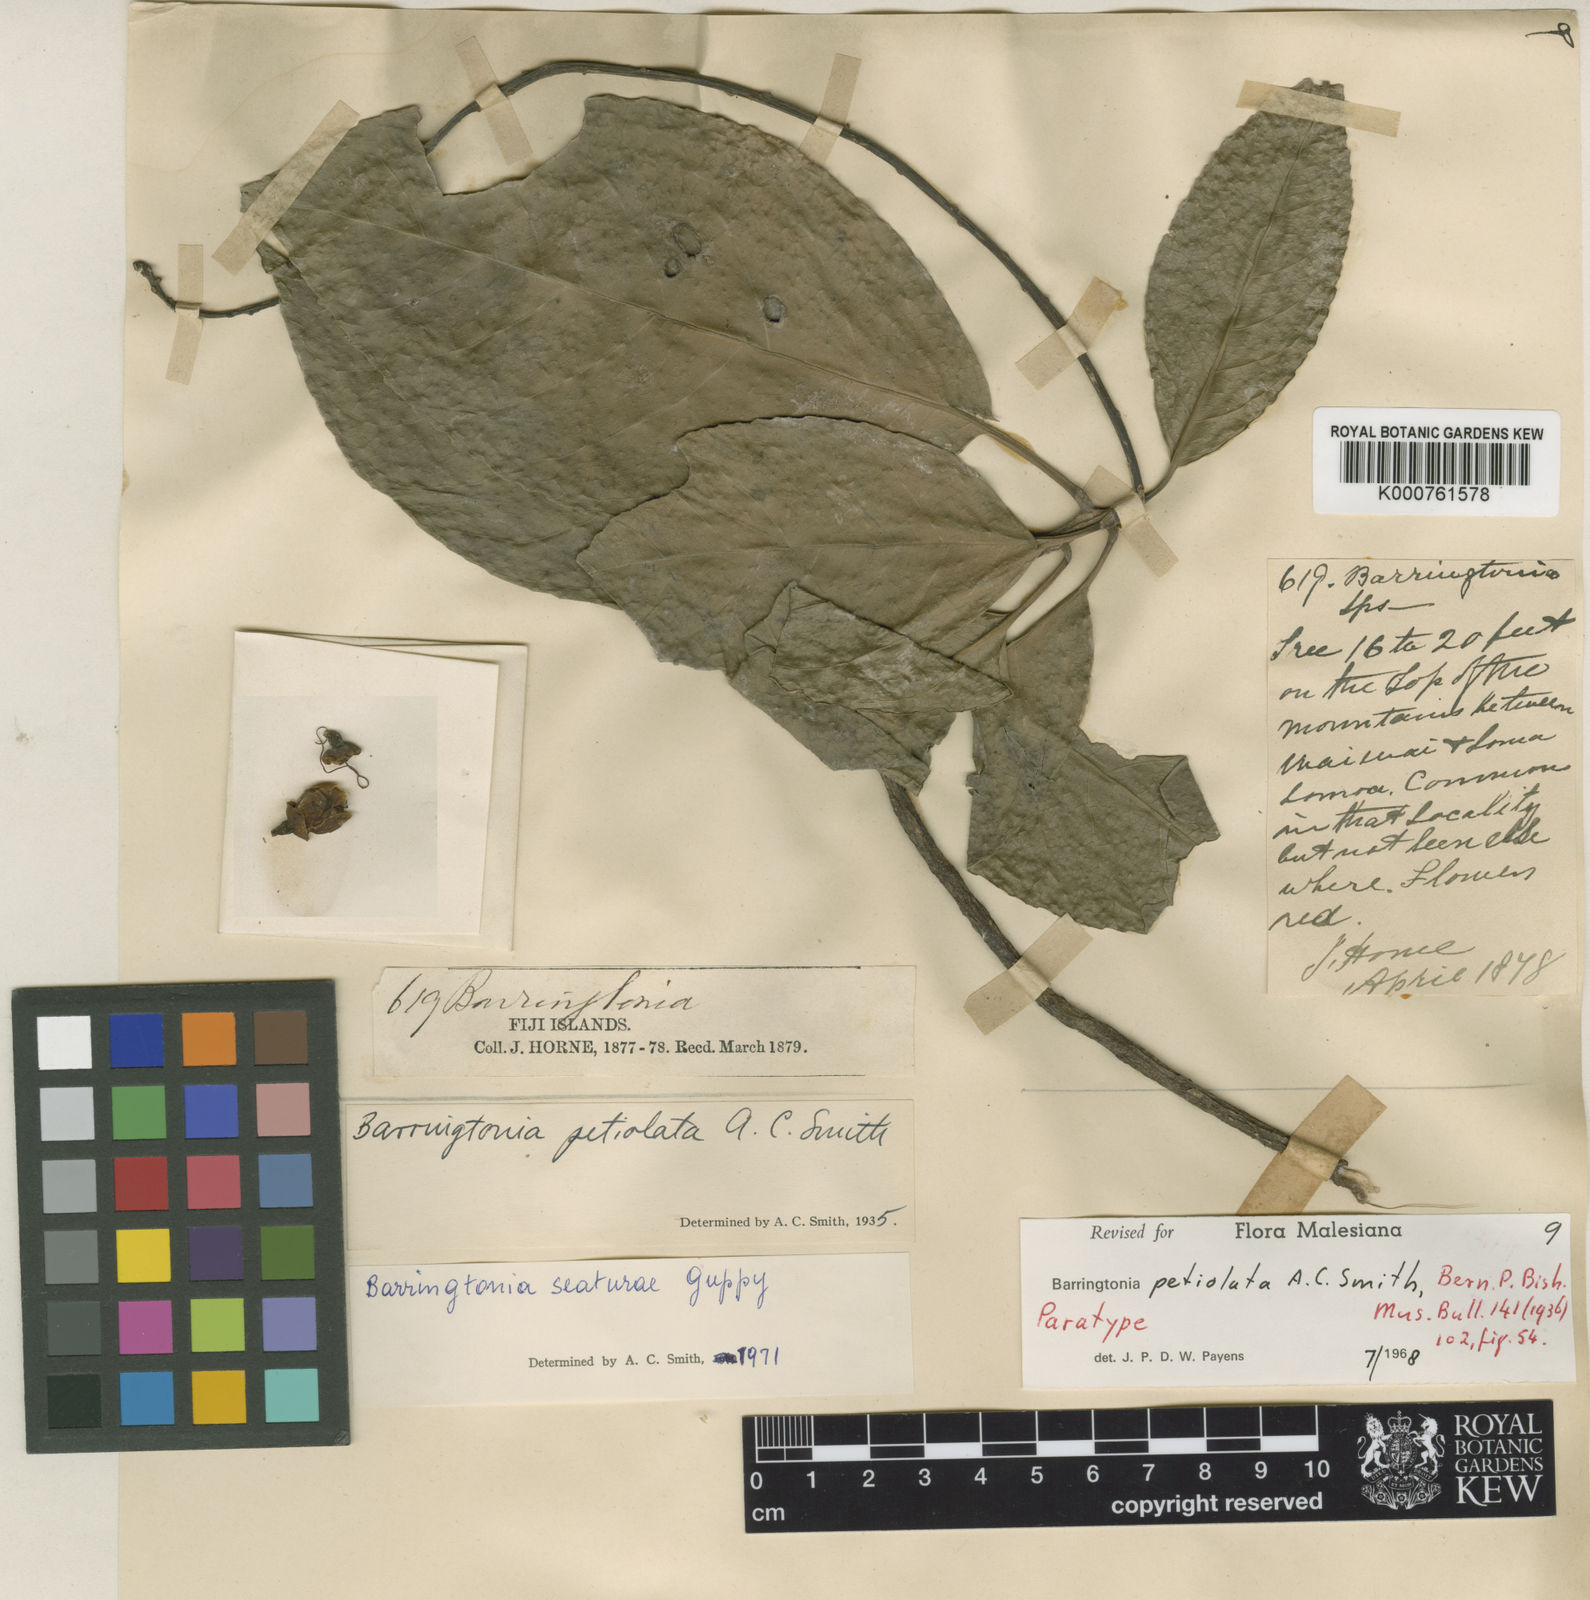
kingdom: Plantae
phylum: Tracheophyta
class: Magnoliopsida
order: Ericales
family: Lecythidaceae
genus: Barringtonia
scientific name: Barringtonia seaturae
